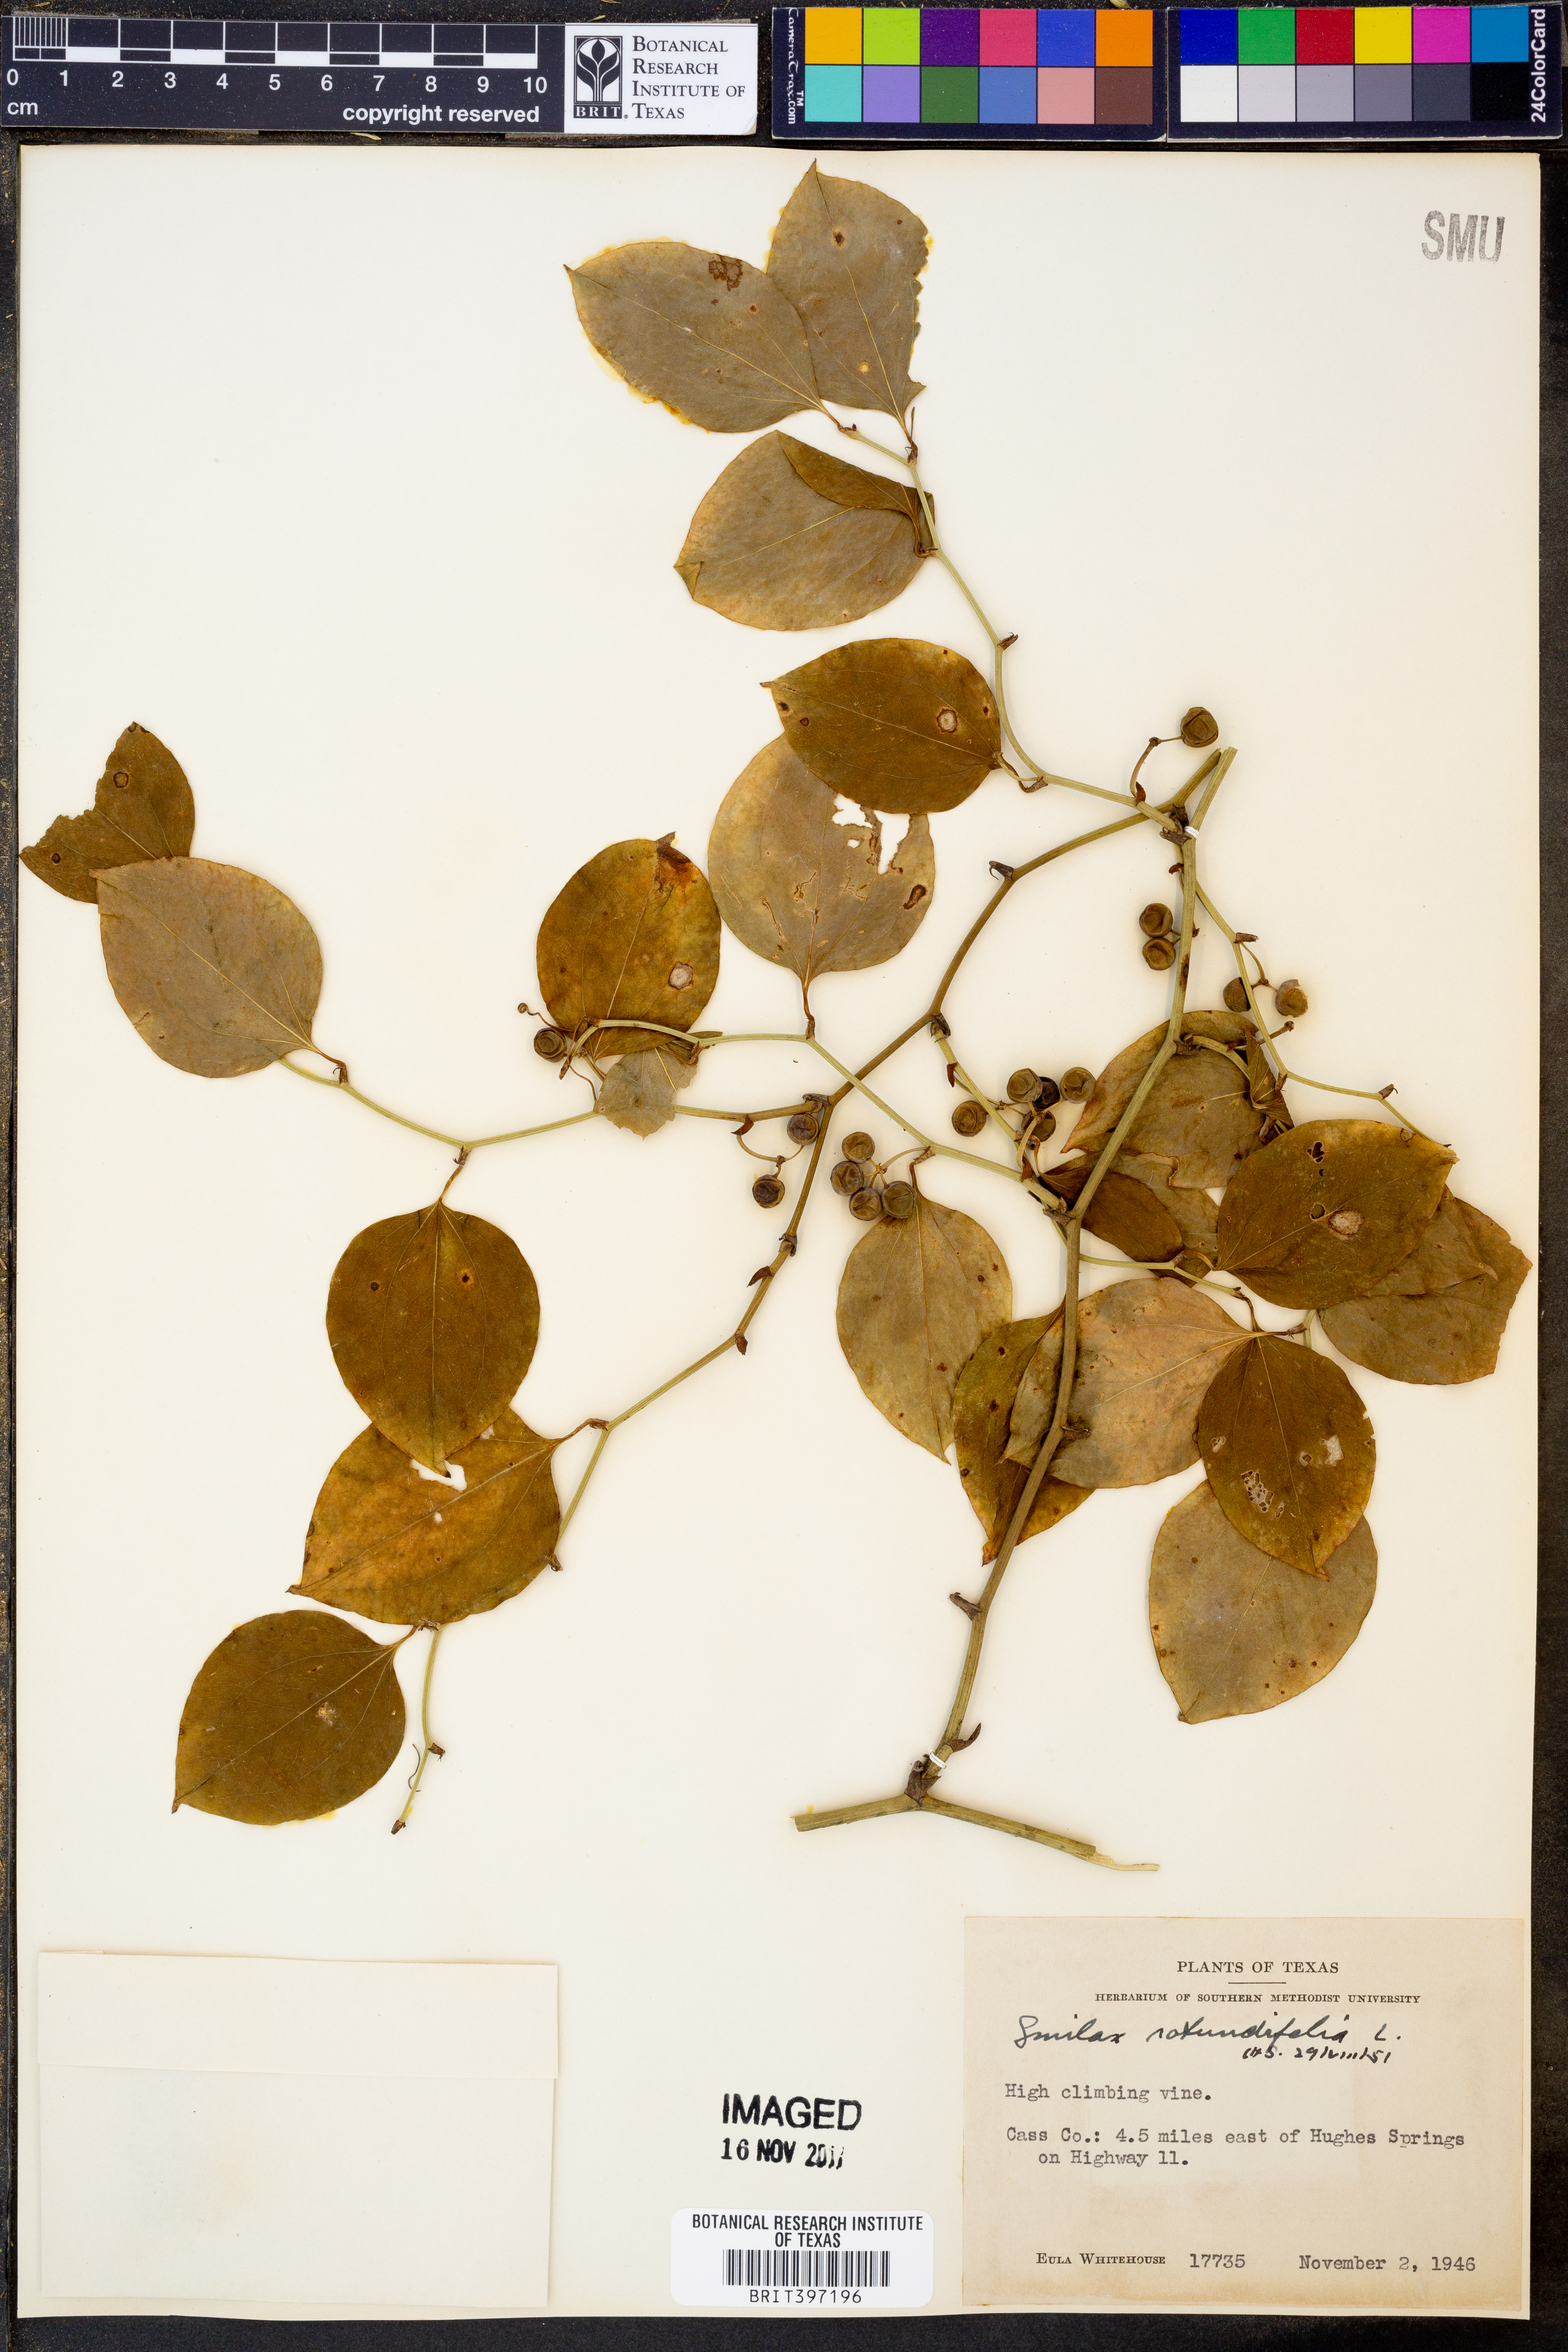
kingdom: Plantae
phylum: Tracheophyta
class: Liliopsida
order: Liliales
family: Smilacaceae
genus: Smilax
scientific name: Smilax rotundifolia
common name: Bullbriar
